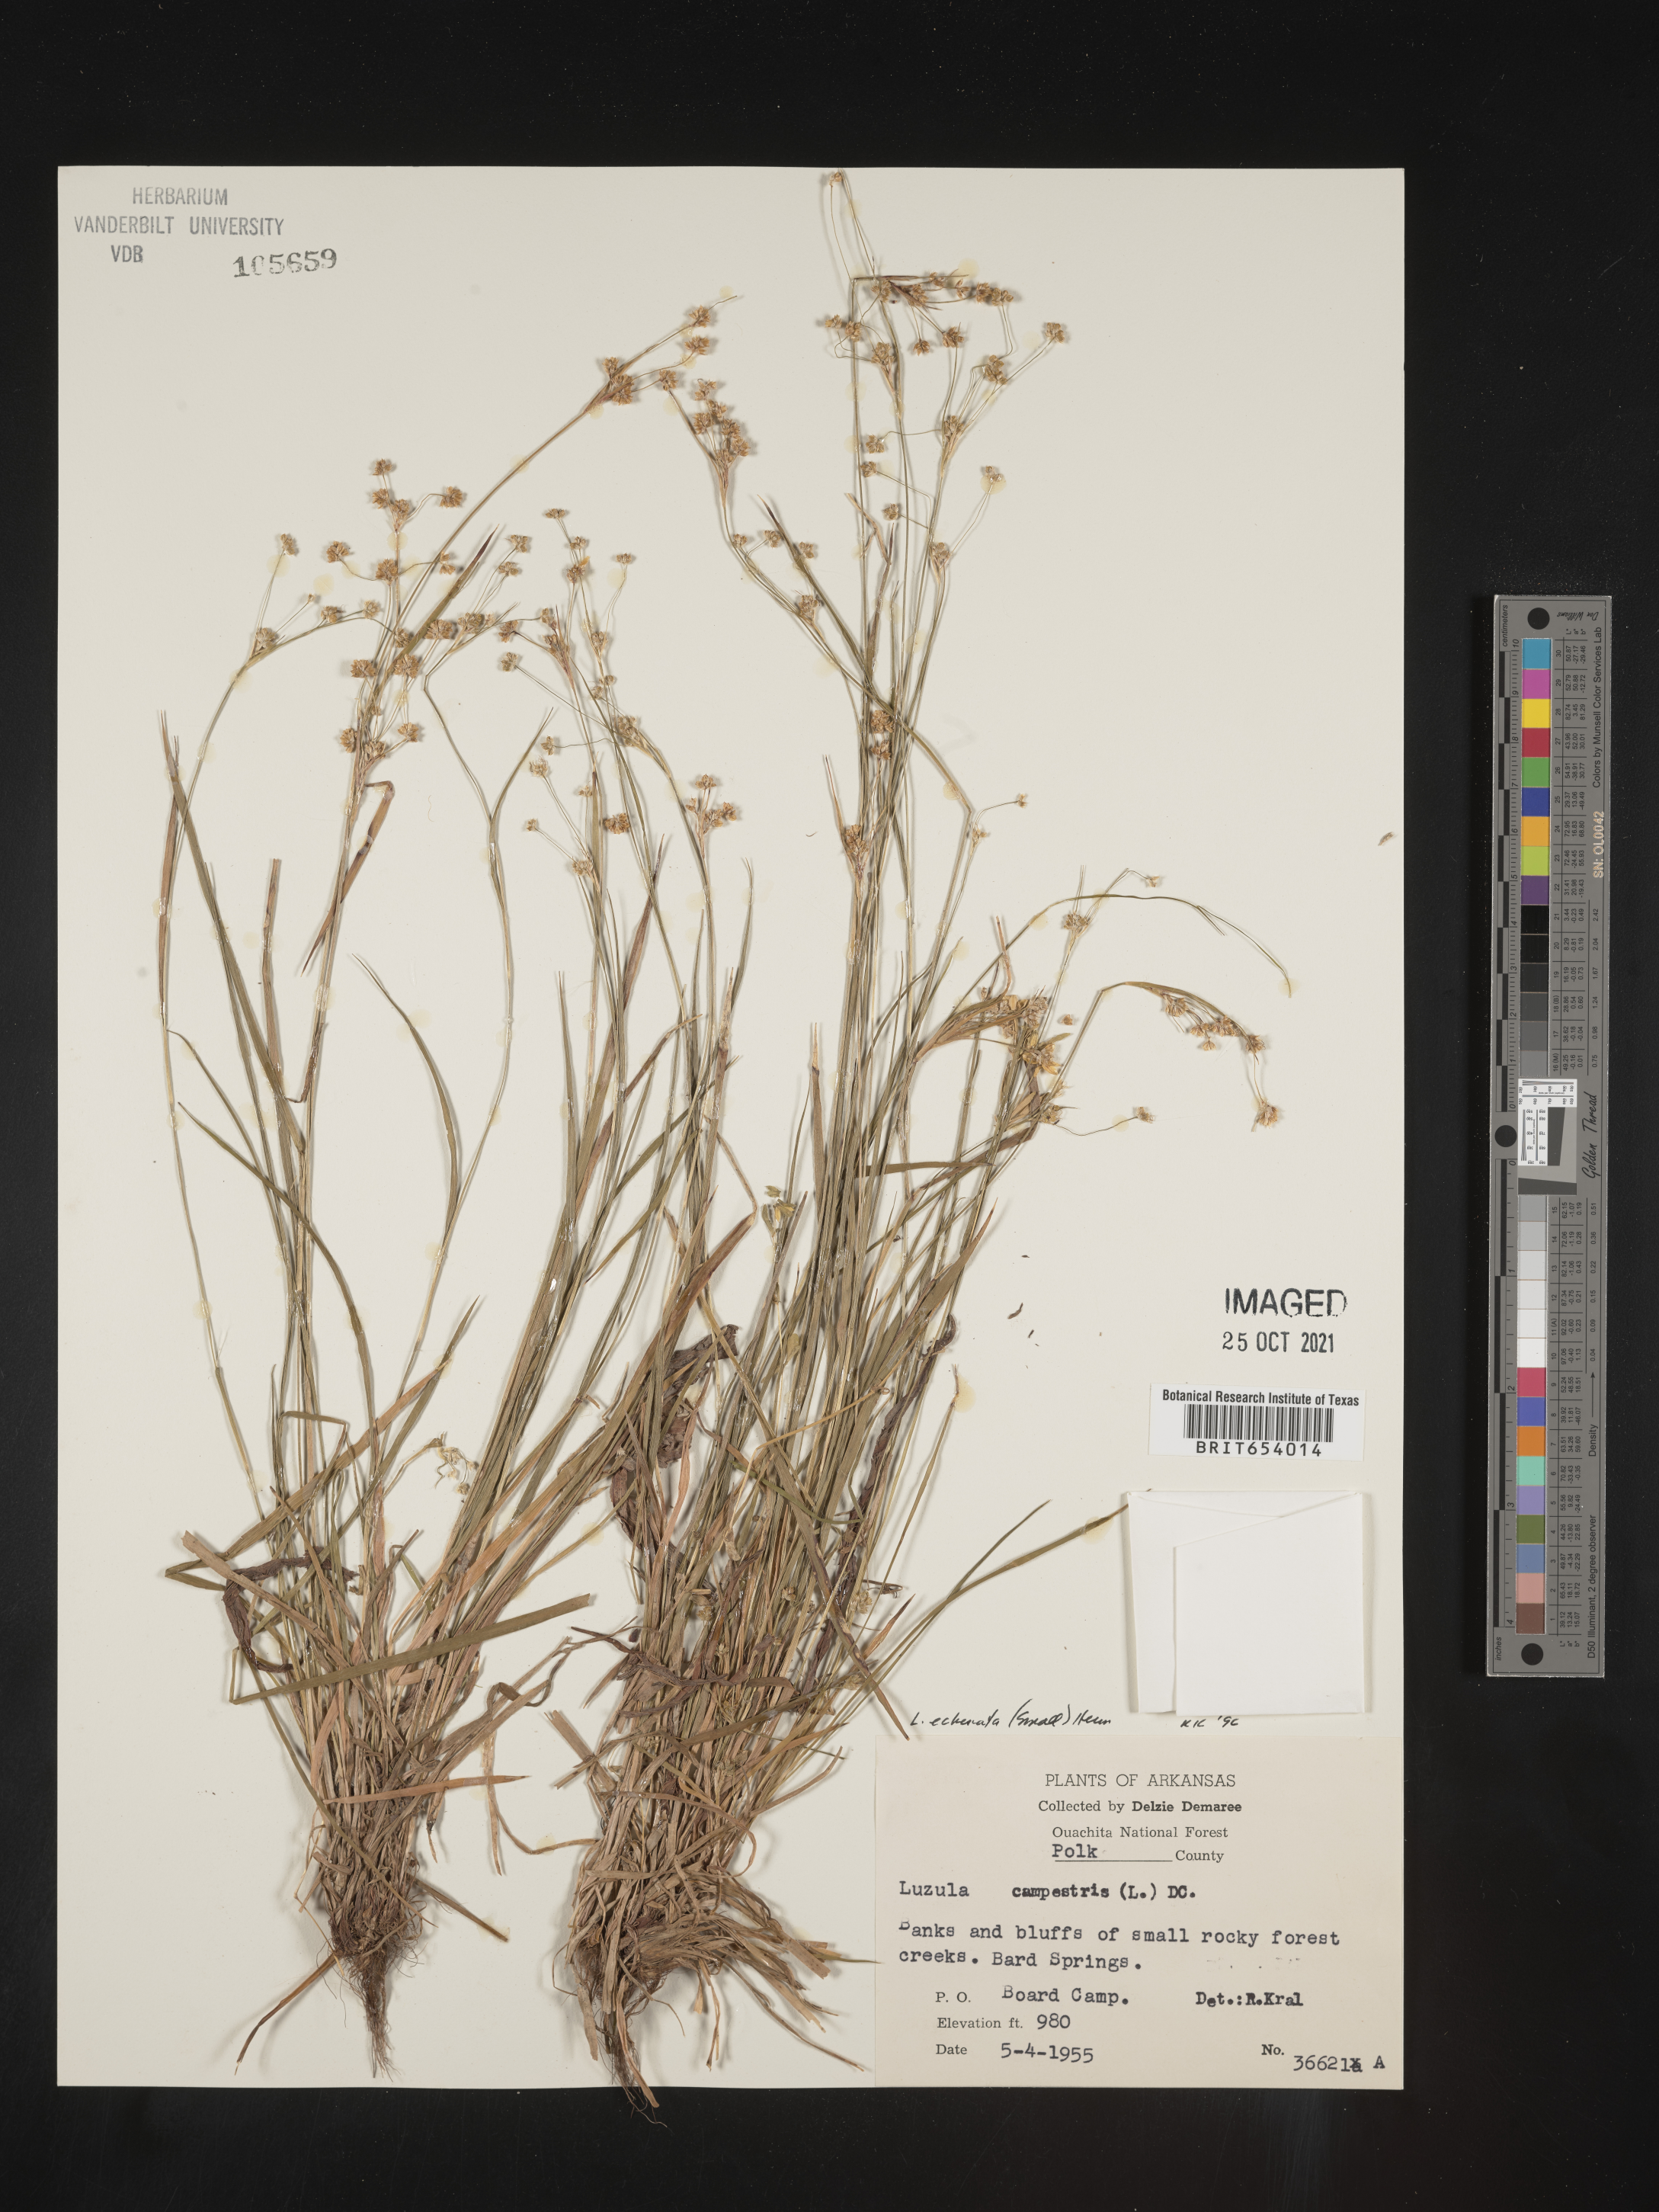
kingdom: Plantae
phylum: Tracheophyta
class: Liliopsida
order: Poales
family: Juncaceae
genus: Luzula
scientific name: Luzula echinata
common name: Hedgehog woodrush
